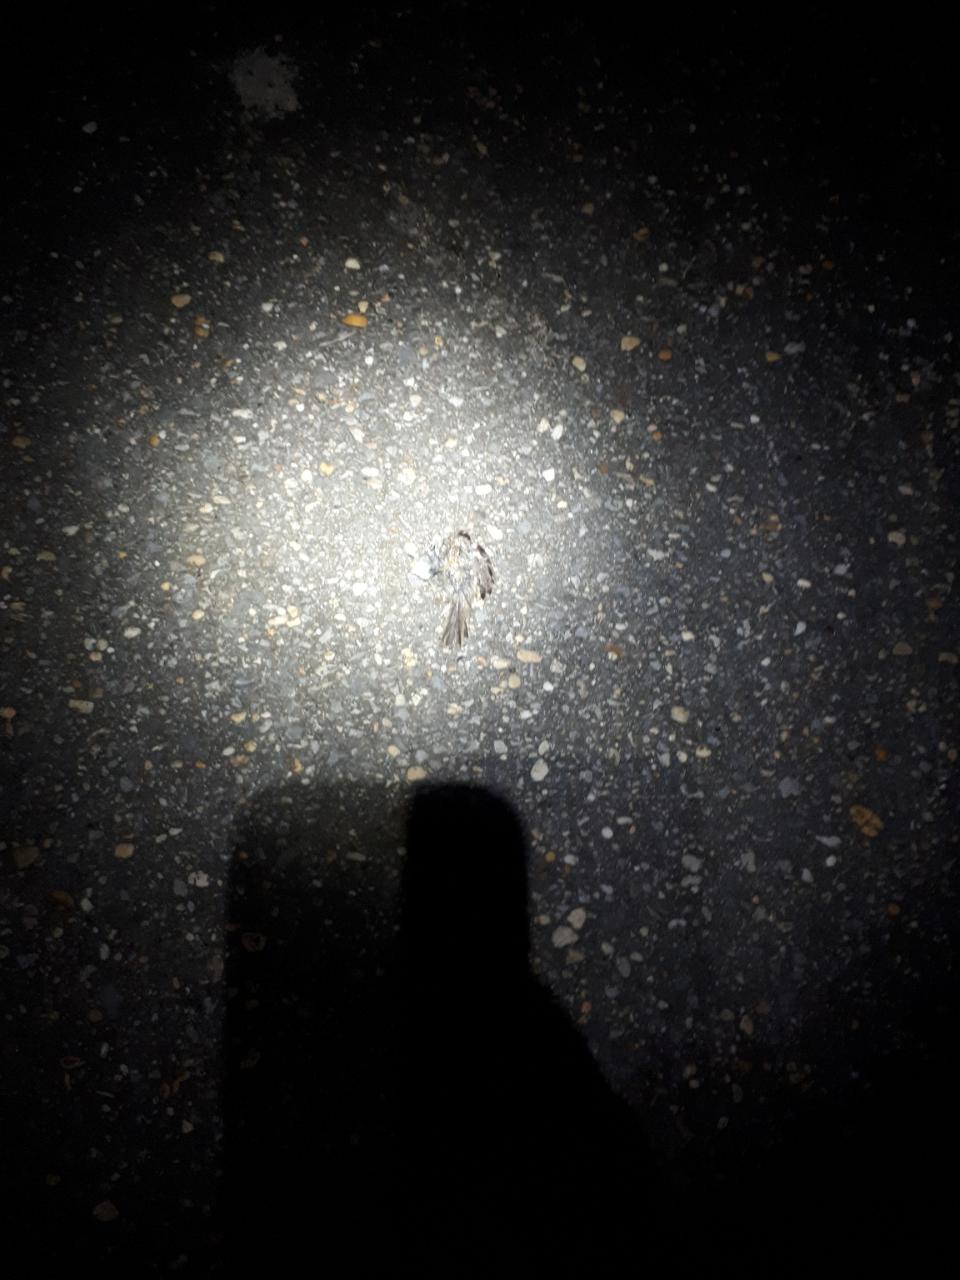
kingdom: Animalia
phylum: Chordata
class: Aves
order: Passeriformes
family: Passeridae
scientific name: Passeridae
